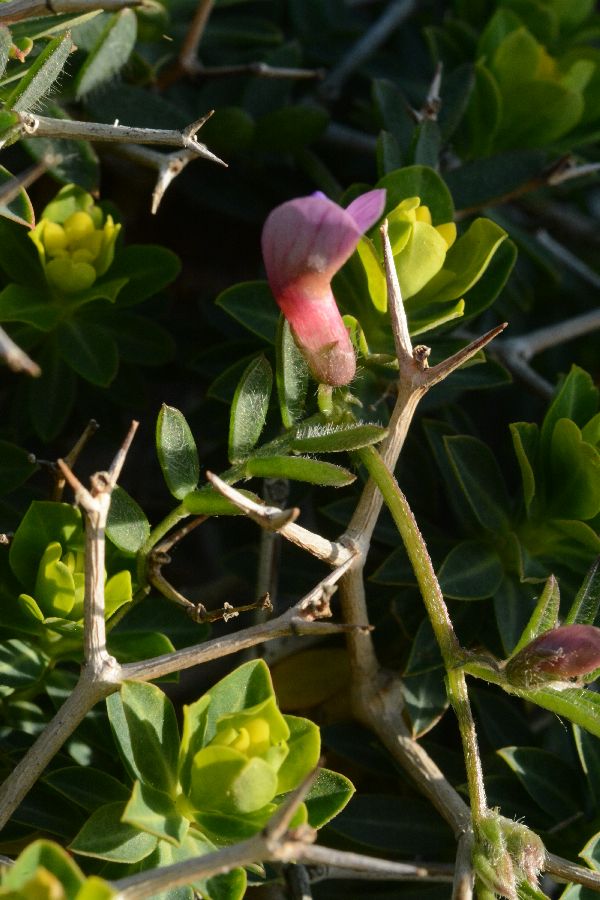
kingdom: Plantae
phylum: Tracheophyta
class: Magnoliopsida
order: Fabales
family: Fabaceae
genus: Vicia
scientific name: Vicia cretica
